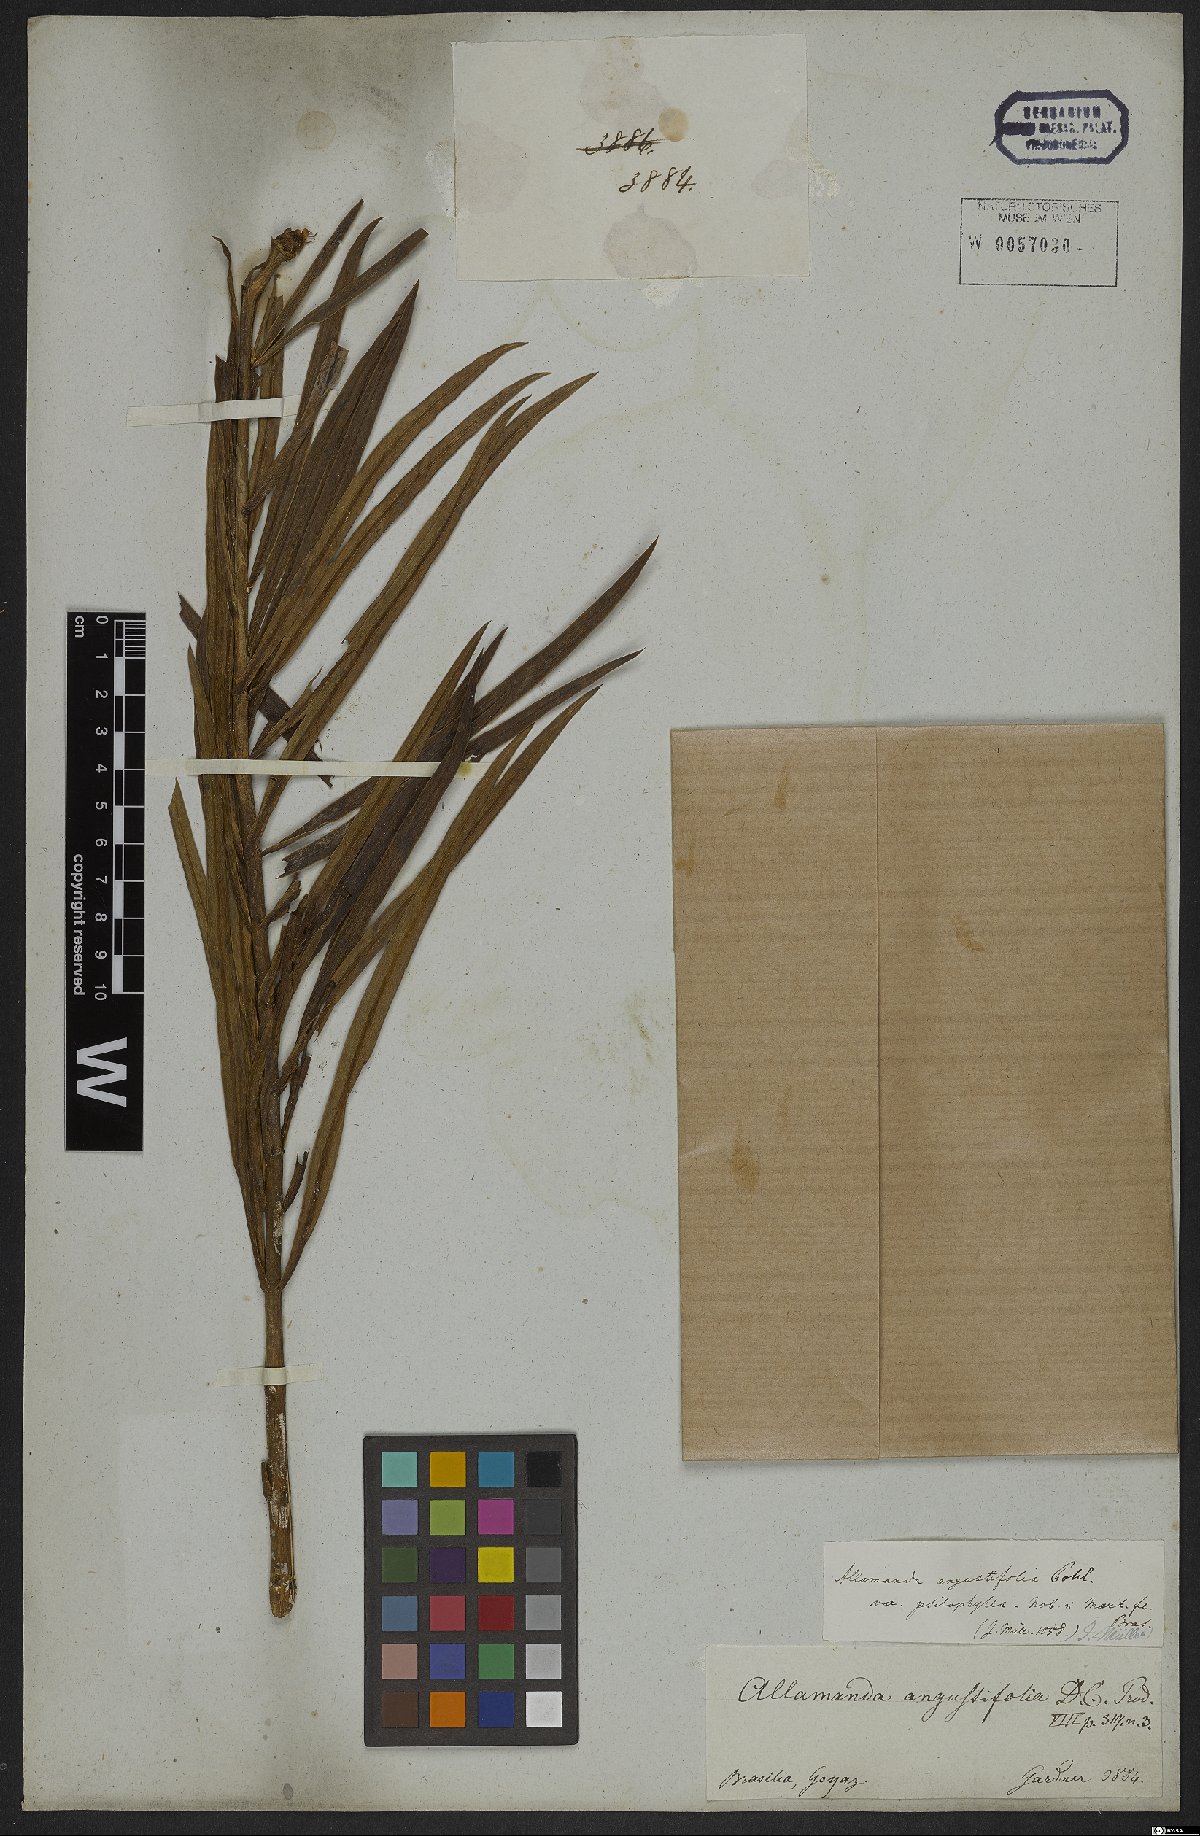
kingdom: Plantae
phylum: Tracheophyta
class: Magnoliopsida
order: Gentianales
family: Apocynaceae
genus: Allamanda
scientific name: Allamanda angustifolia
